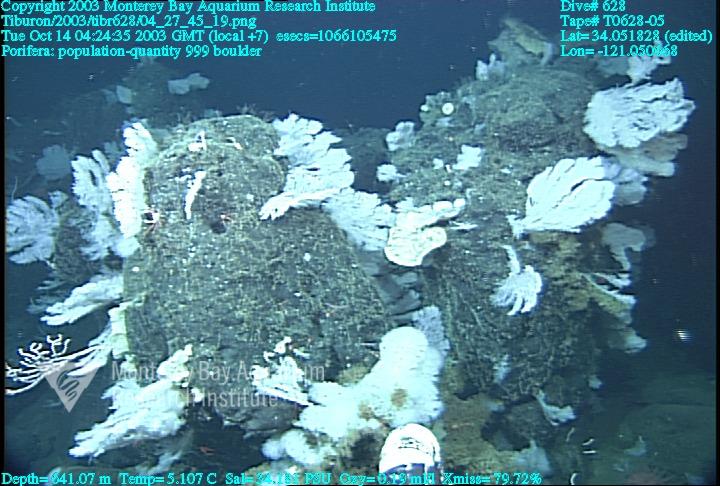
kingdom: Animalia
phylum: Porifera
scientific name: Porifera
